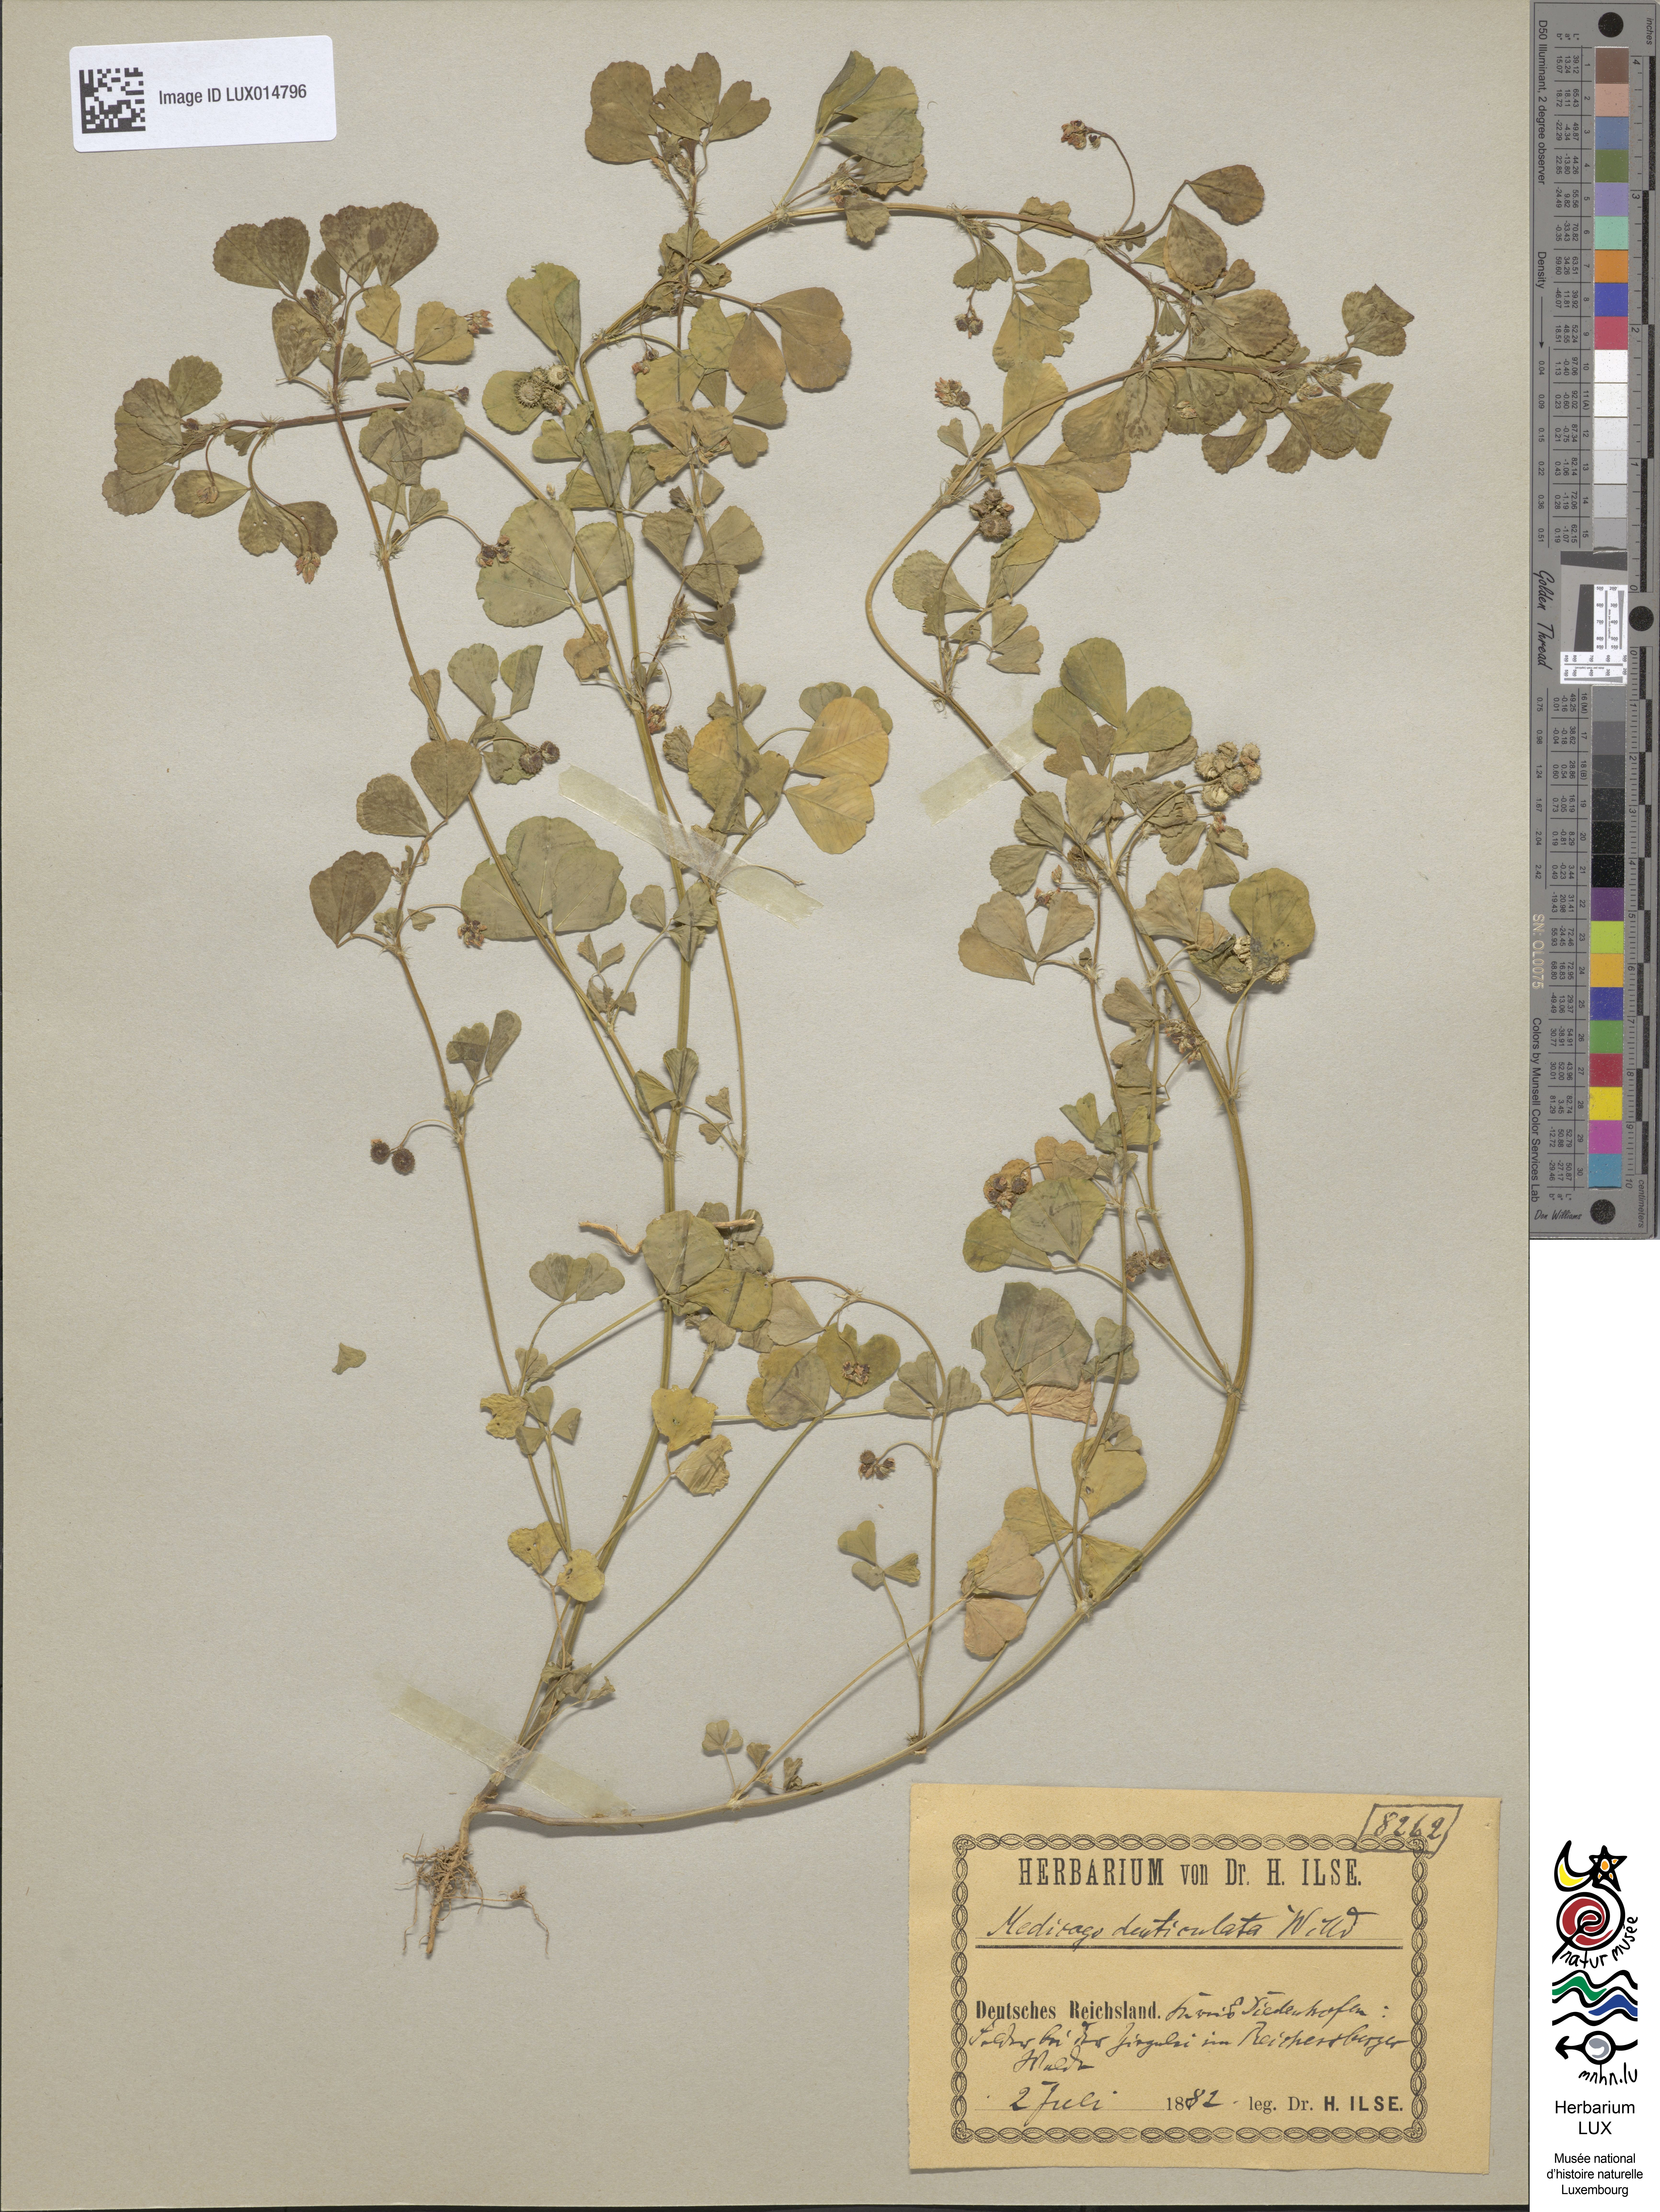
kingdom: Plantae
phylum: Tracheophyta
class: Magnoliopsida
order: Fabales
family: Fabaceae
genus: Medicago
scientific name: Medicago polymorpha
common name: Burclover
